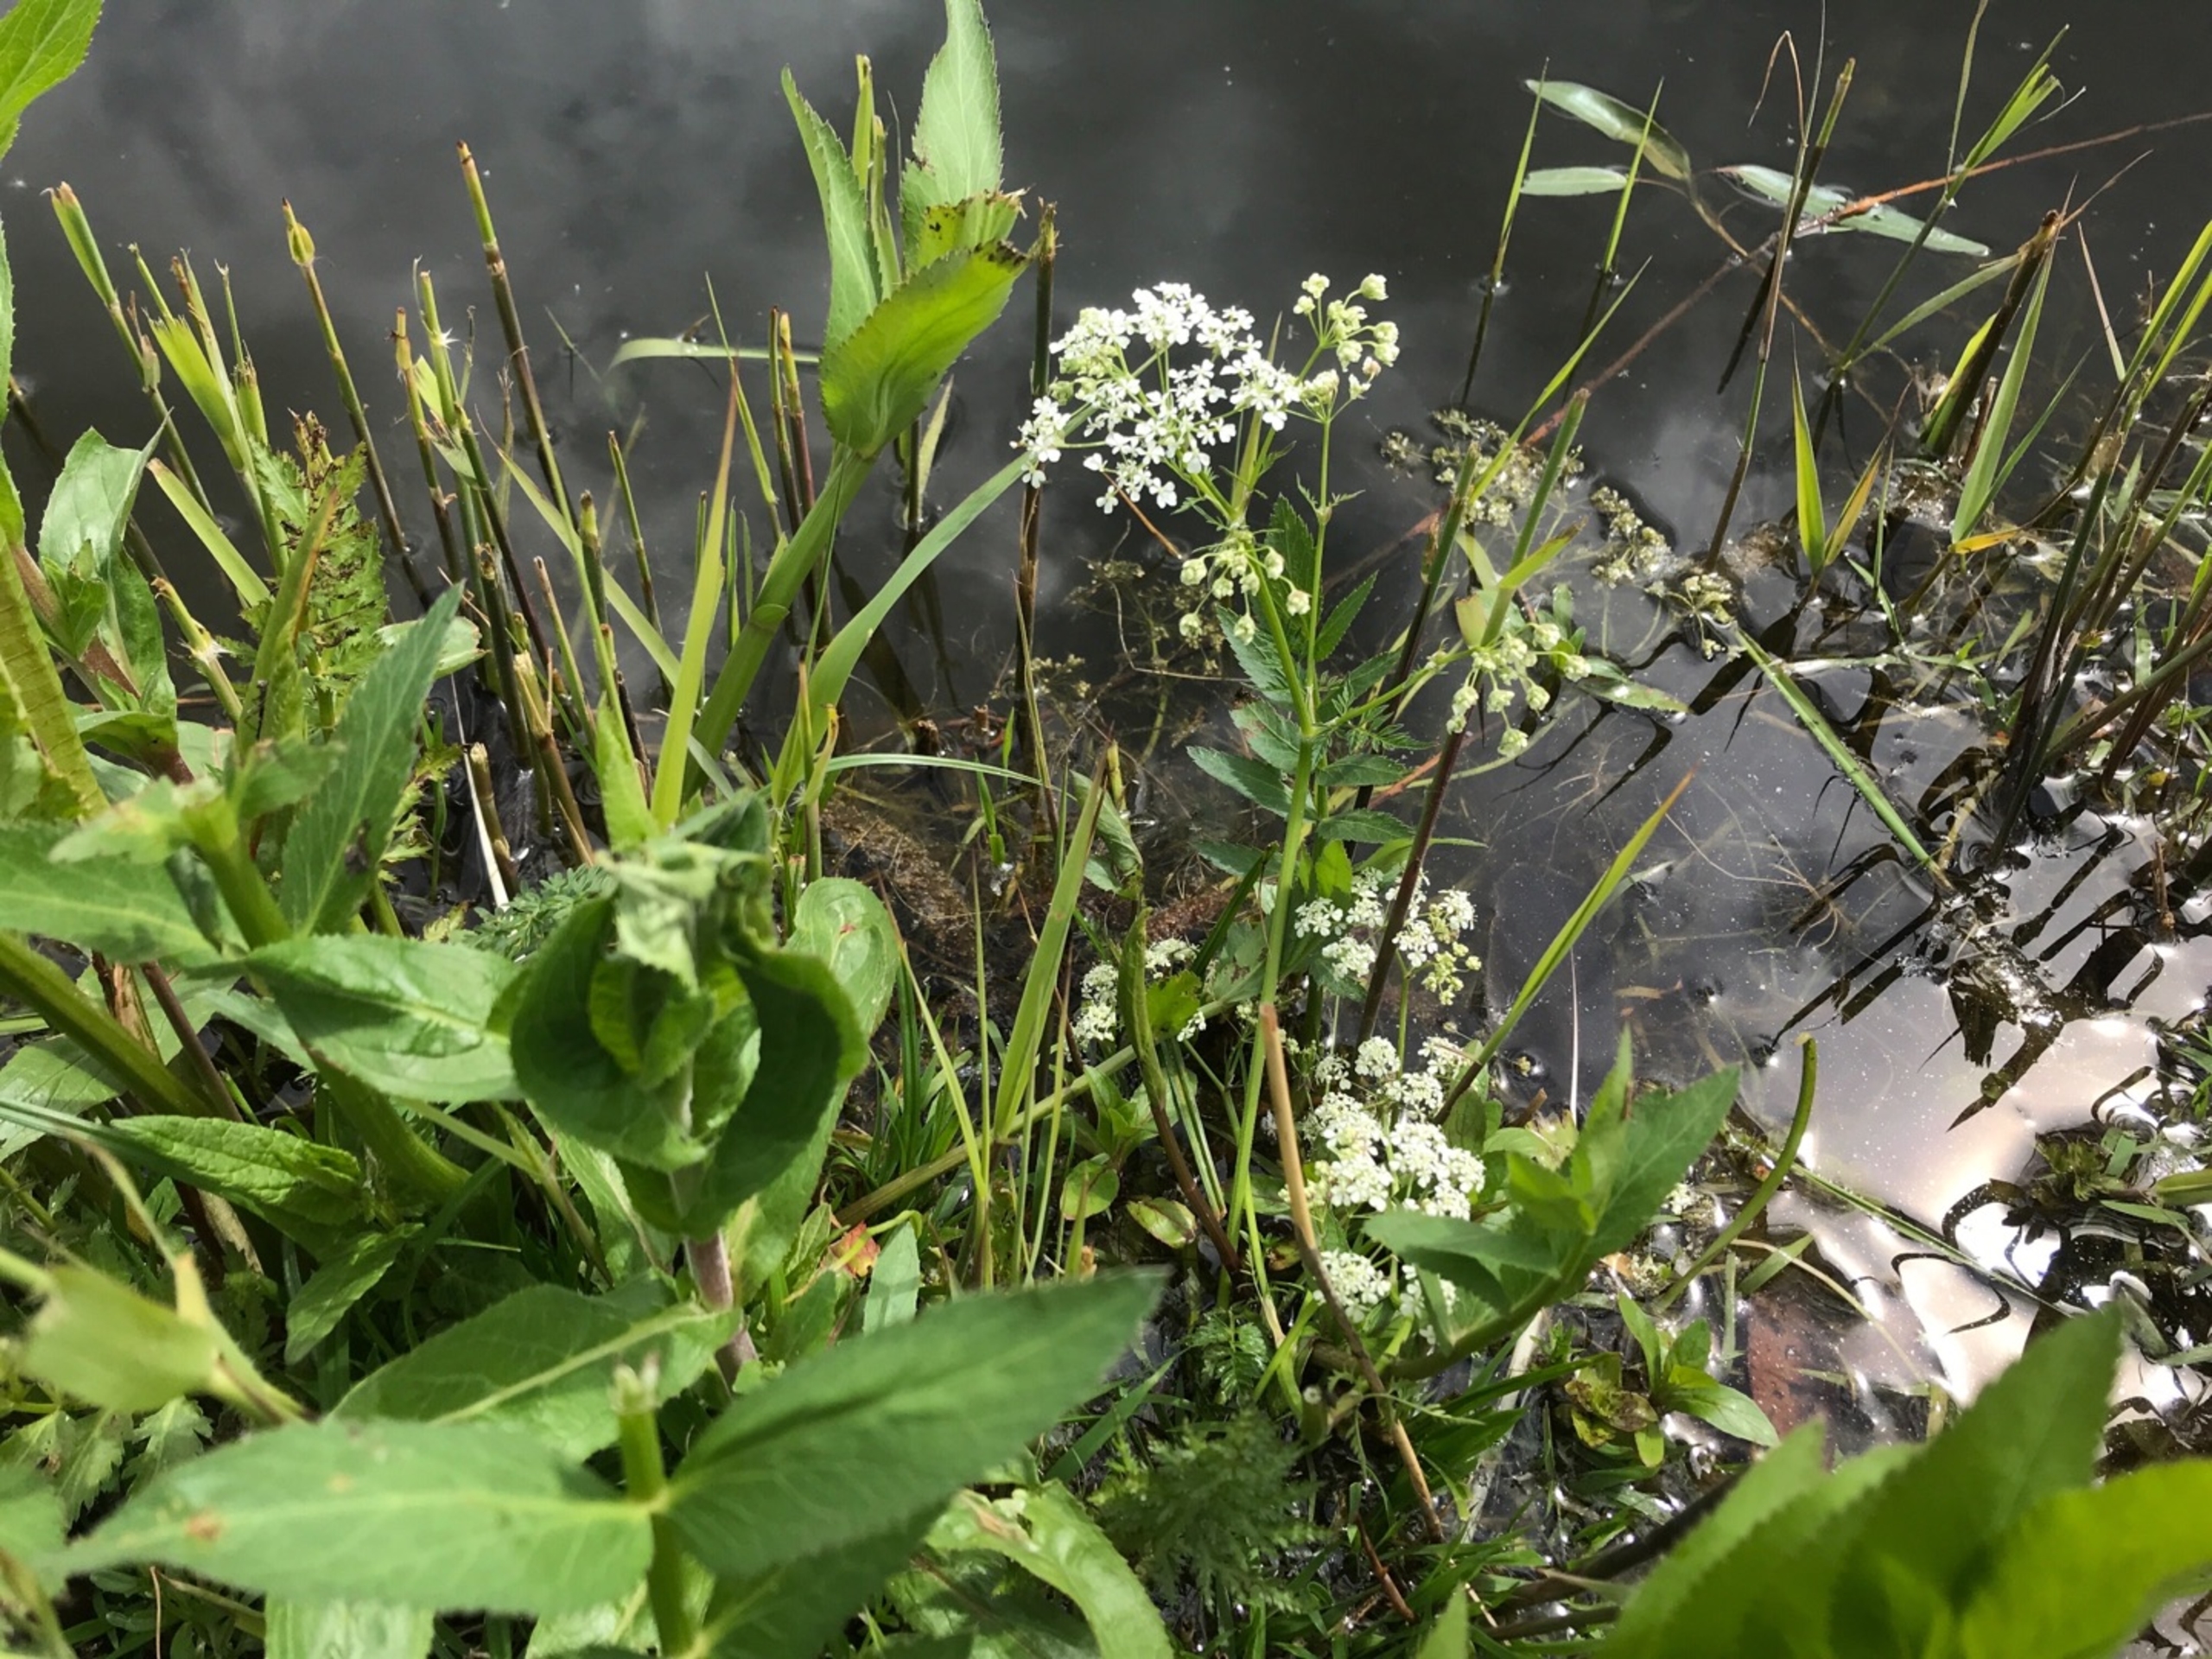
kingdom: Plantae
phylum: Tracheophyta
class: Magnoliopsida
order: Apiales
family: Apiaceae
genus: Sium
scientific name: Sium latifolium
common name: Bredbladet mærke
